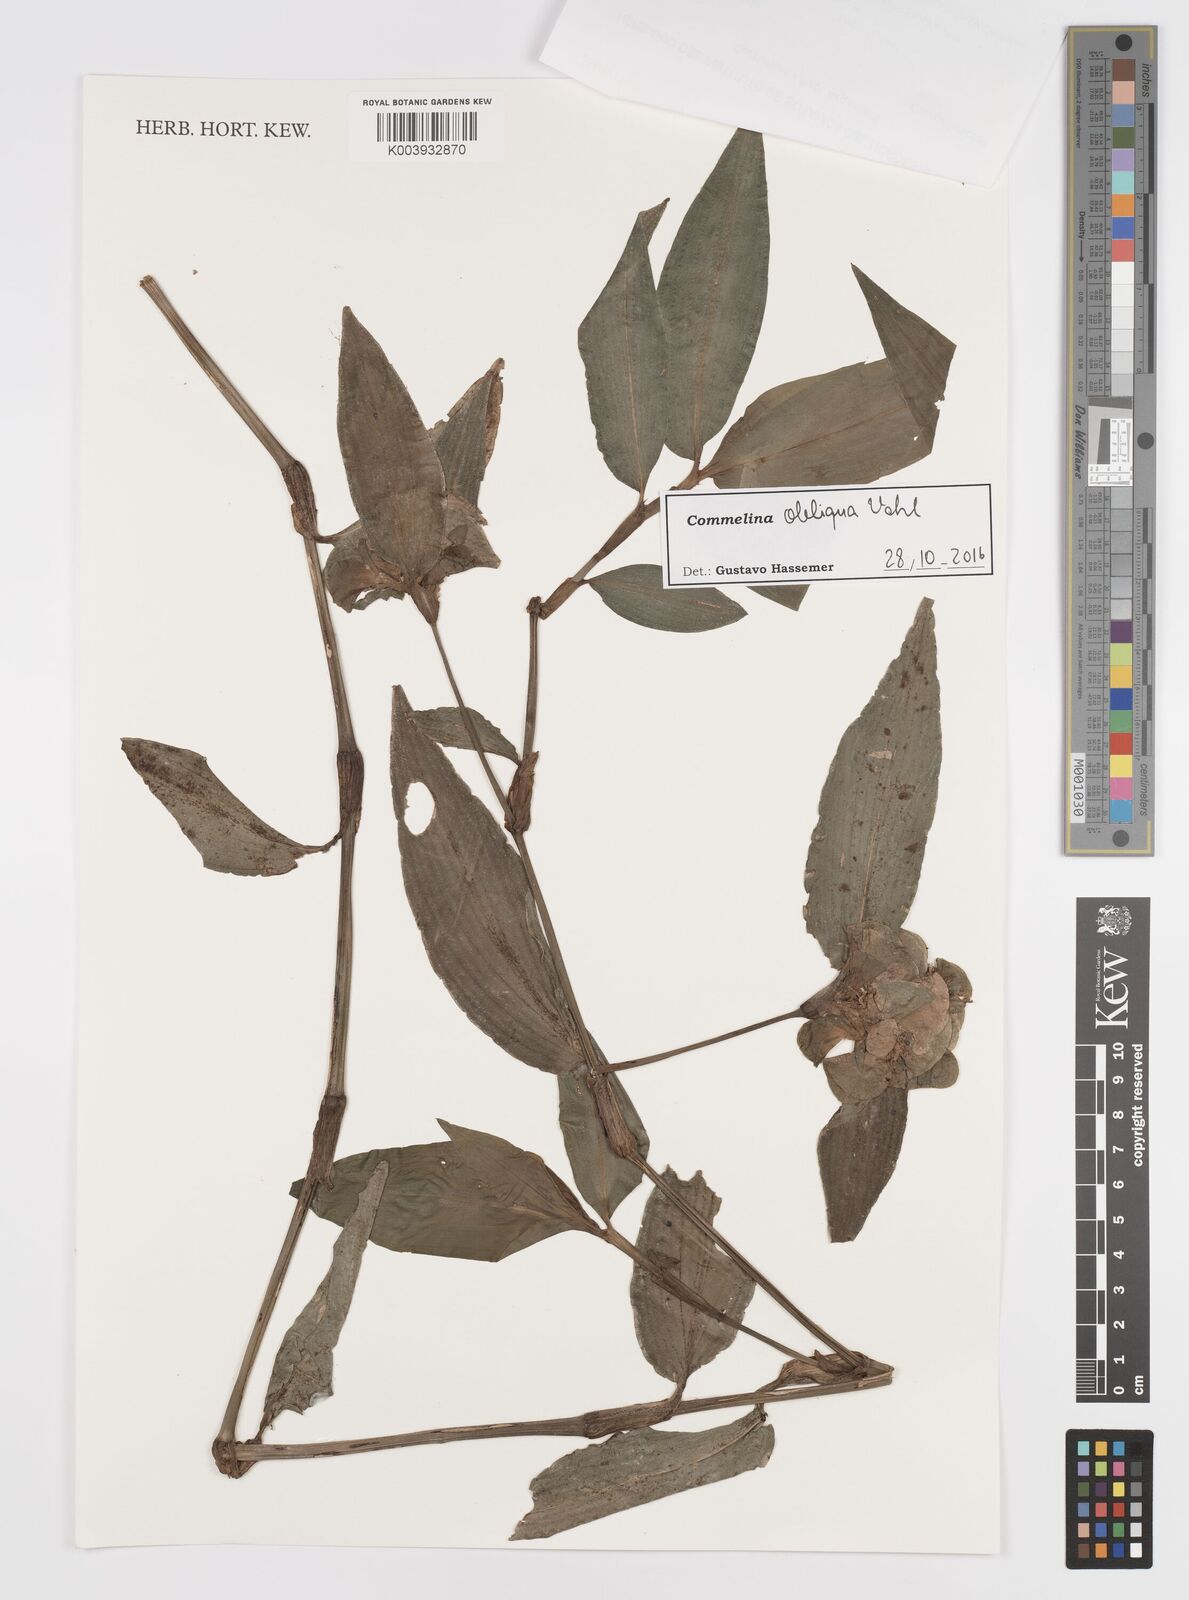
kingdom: Plantae
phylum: Tracheophyta
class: Liliopsida
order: Commelinales
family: Commelinaceae
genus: Commelina
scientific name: Commelina diffusa
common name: Climbing dayflower
